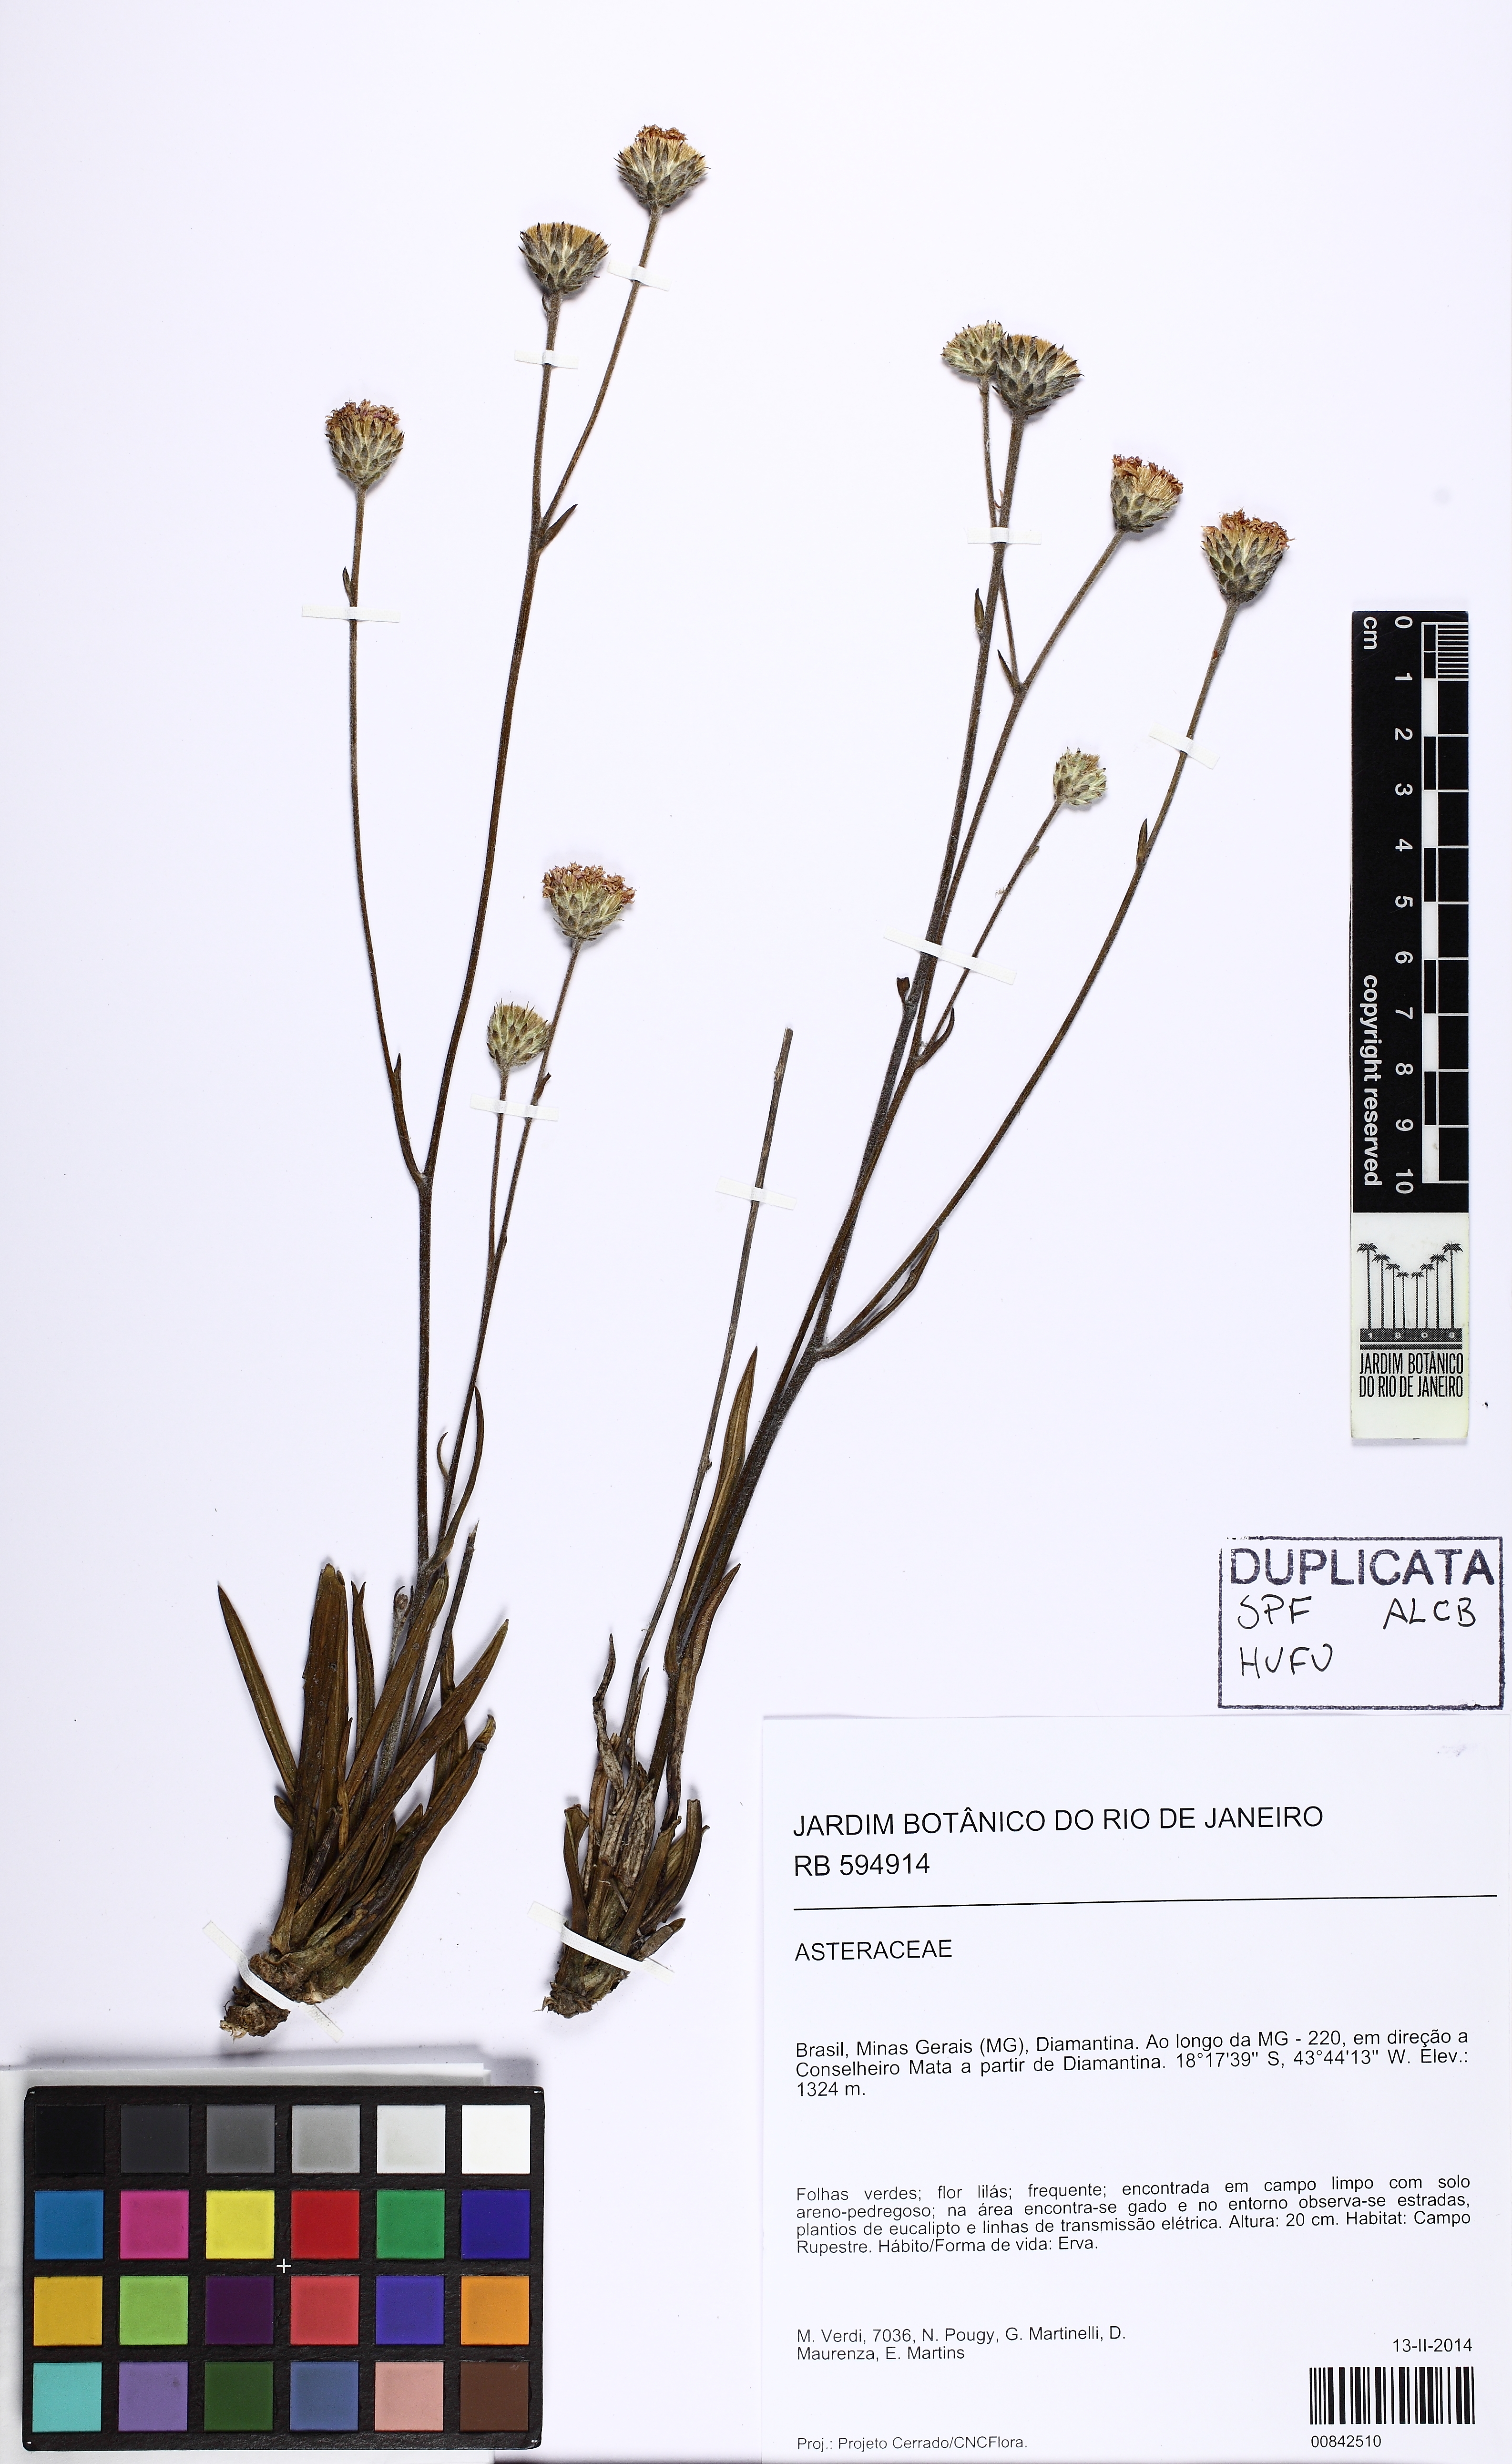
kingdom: Plantae
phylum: Tracheophyta
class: Magnoliopsida
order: Asterales
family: Asteraceae
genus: Lessingianthus
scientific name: Lessingianthus
